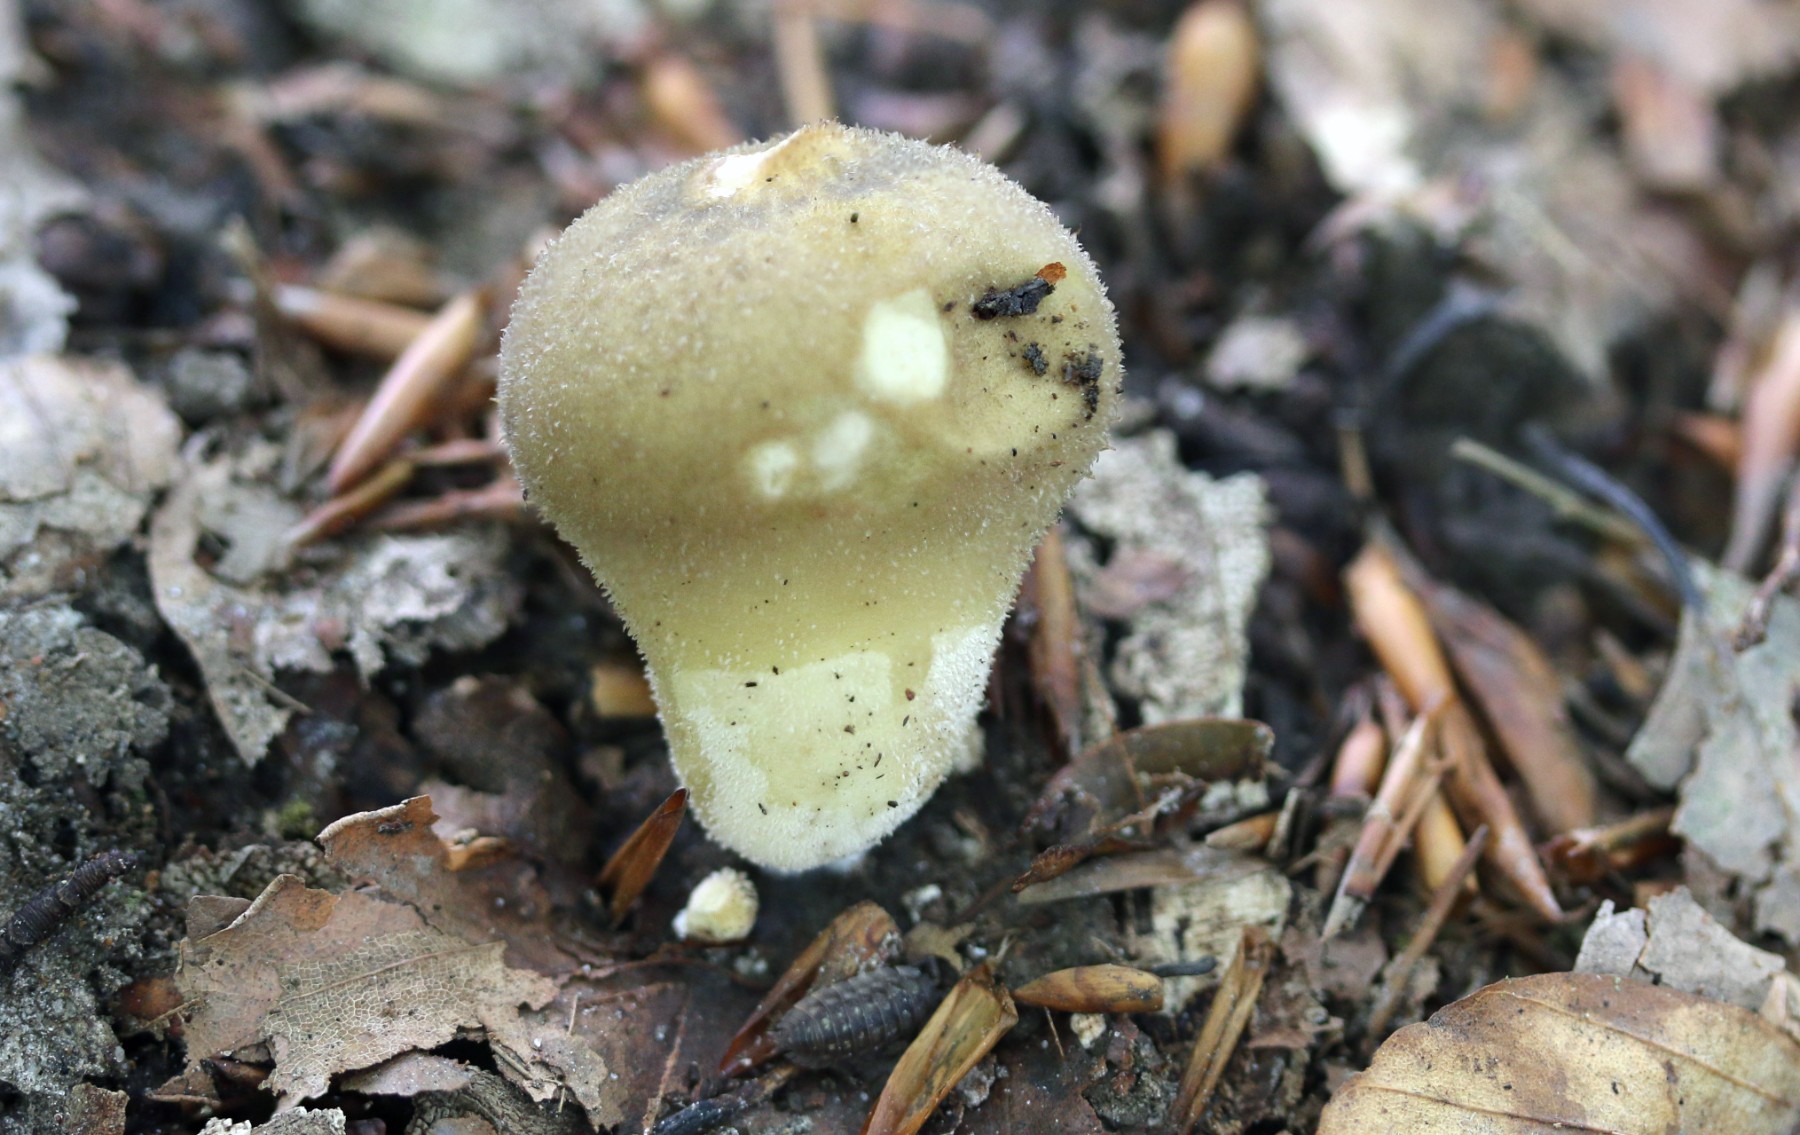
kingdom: Fungi
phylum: Basidiomycota
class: Agaricomycetes
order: Agaricales
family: Lycoperdaceae
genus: Lycoperdon
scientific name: Lycoperdon molle
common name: skov-støvbold
